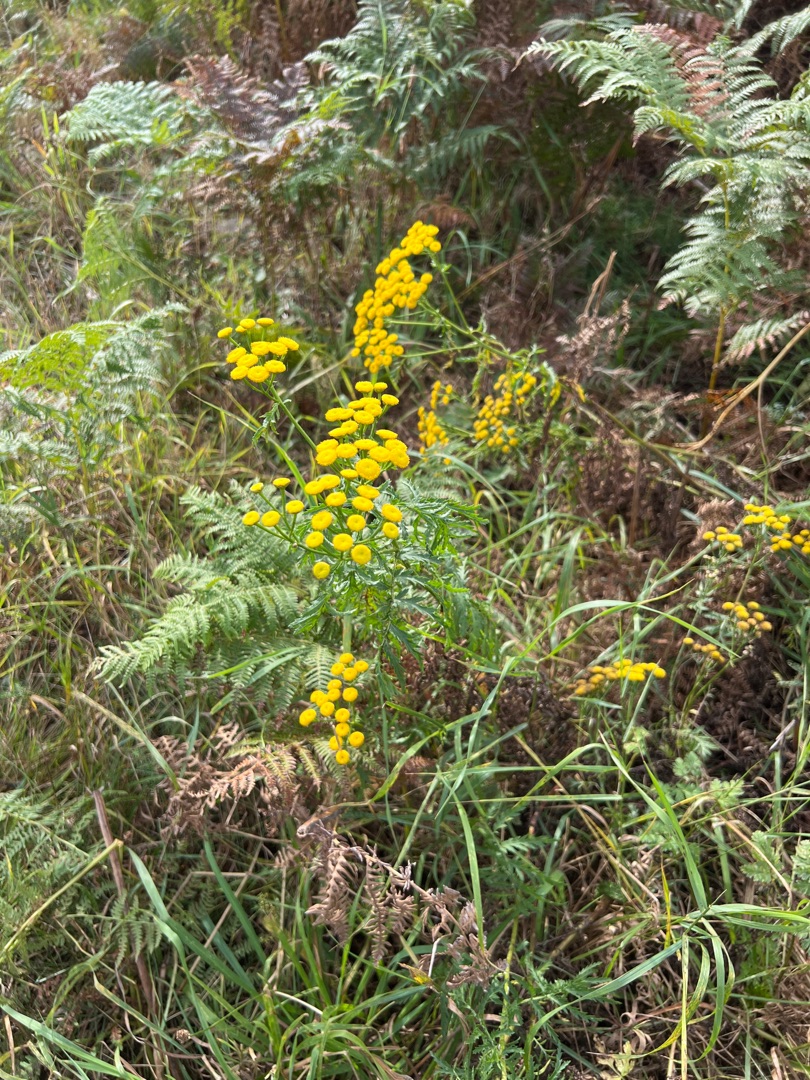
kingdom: Plantae
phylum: Tracheophyta
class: Magnoliopsida
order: Asterales
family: Asteraceae
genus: Tanacetum
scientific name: Tanacetum vulgare
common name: Rejnfan
